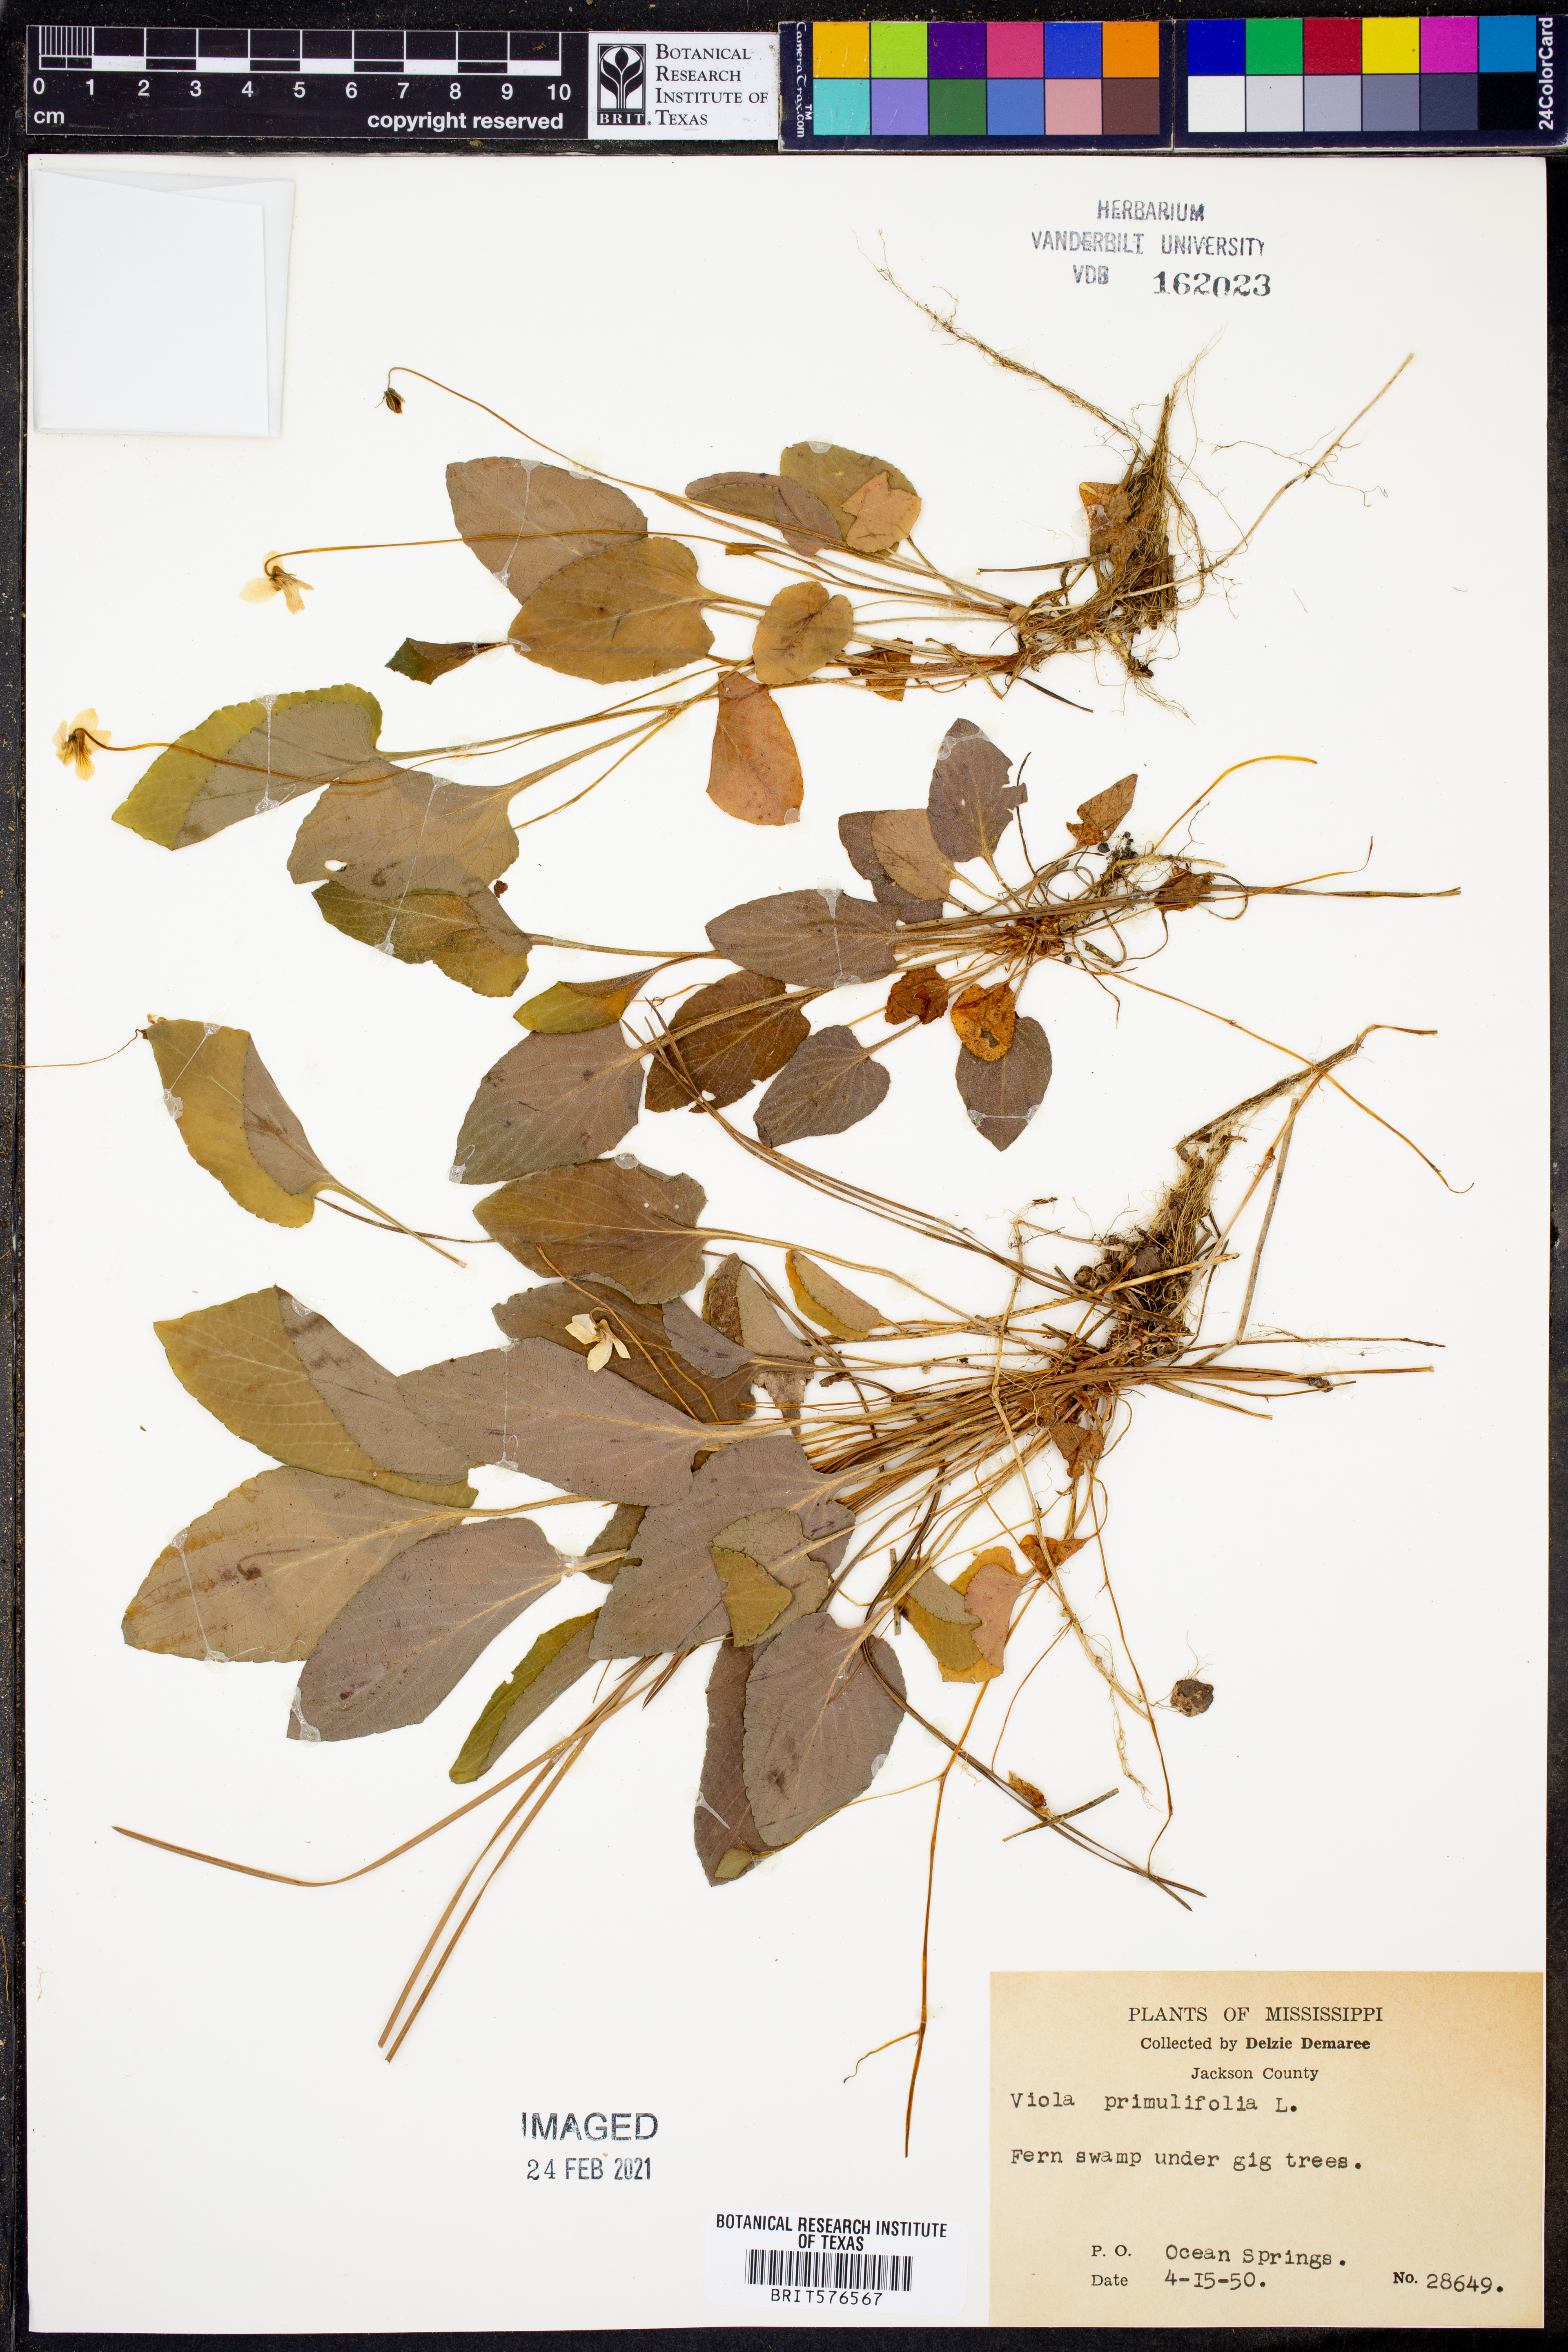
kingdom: Plantae
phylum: Tracheophyta
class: Magnoliopsida
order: Malpighiales
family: Violaceae
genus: Viola
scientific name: Viola primulifolia
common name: Primrose-leaf violet
